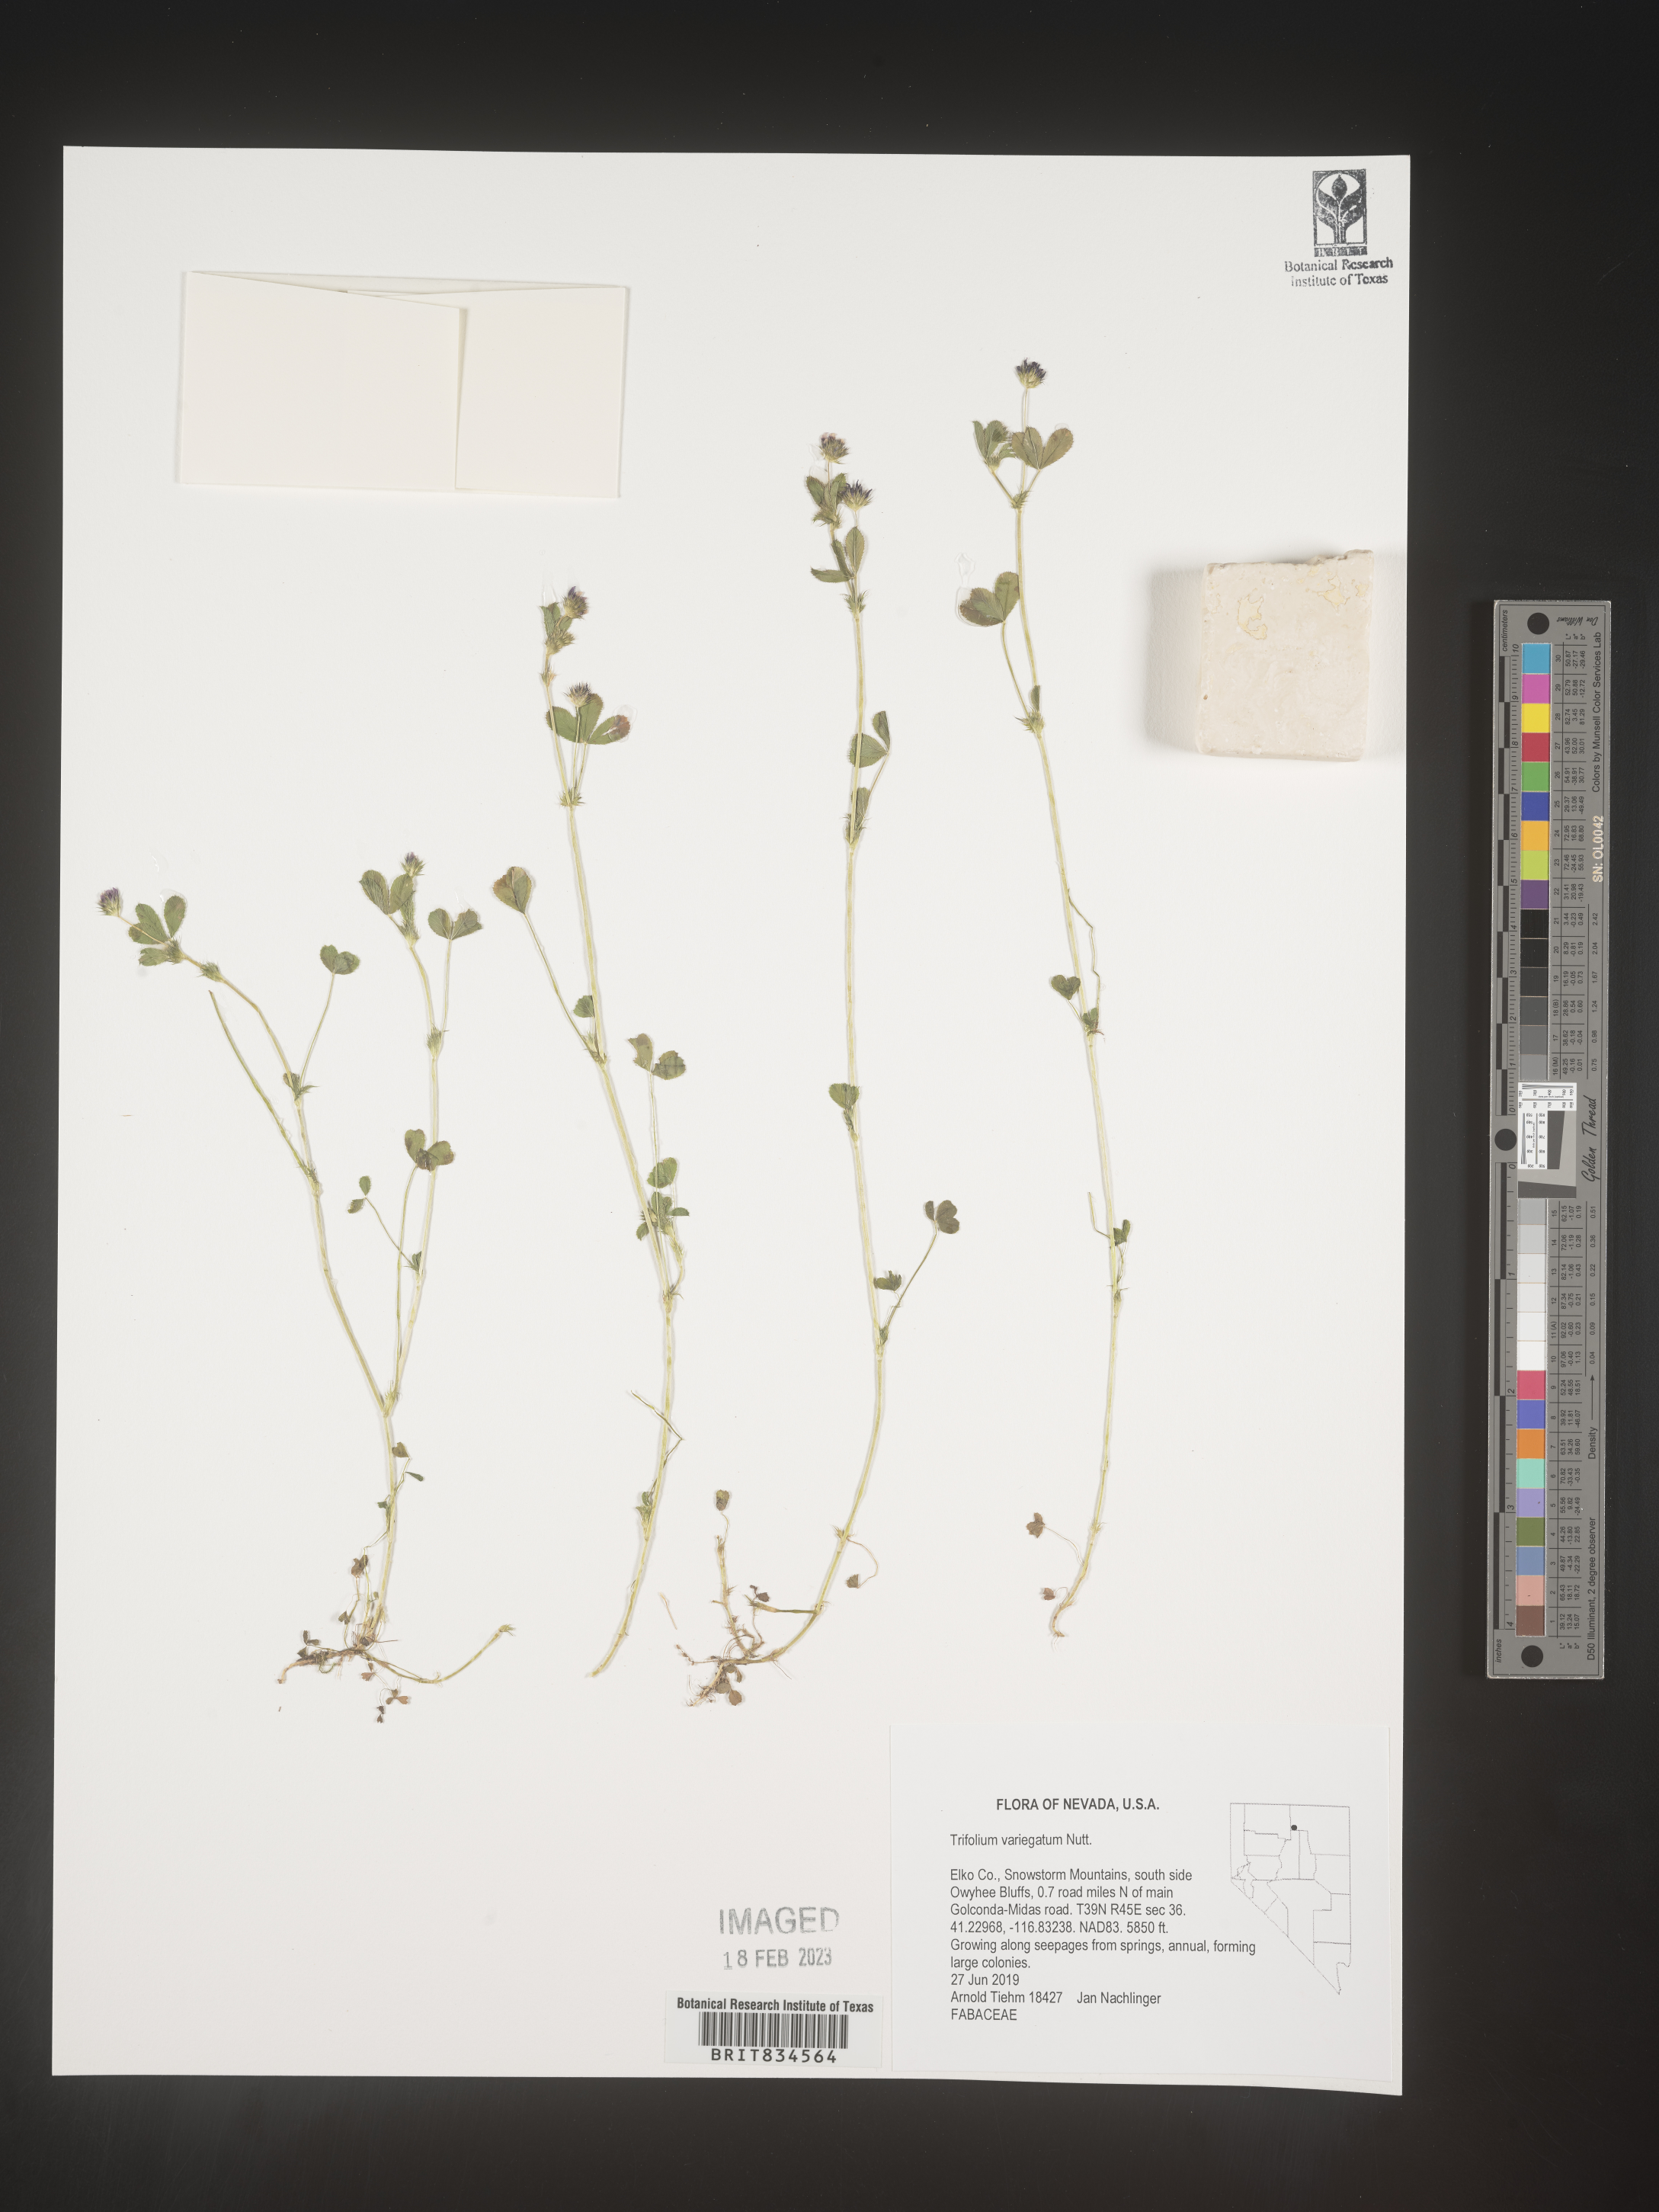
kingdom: Plantae
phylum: Tracheophyta
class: Magnoliopsida
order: Fabales
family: Fabaceae
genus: Trifolium
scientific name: Trifolium
